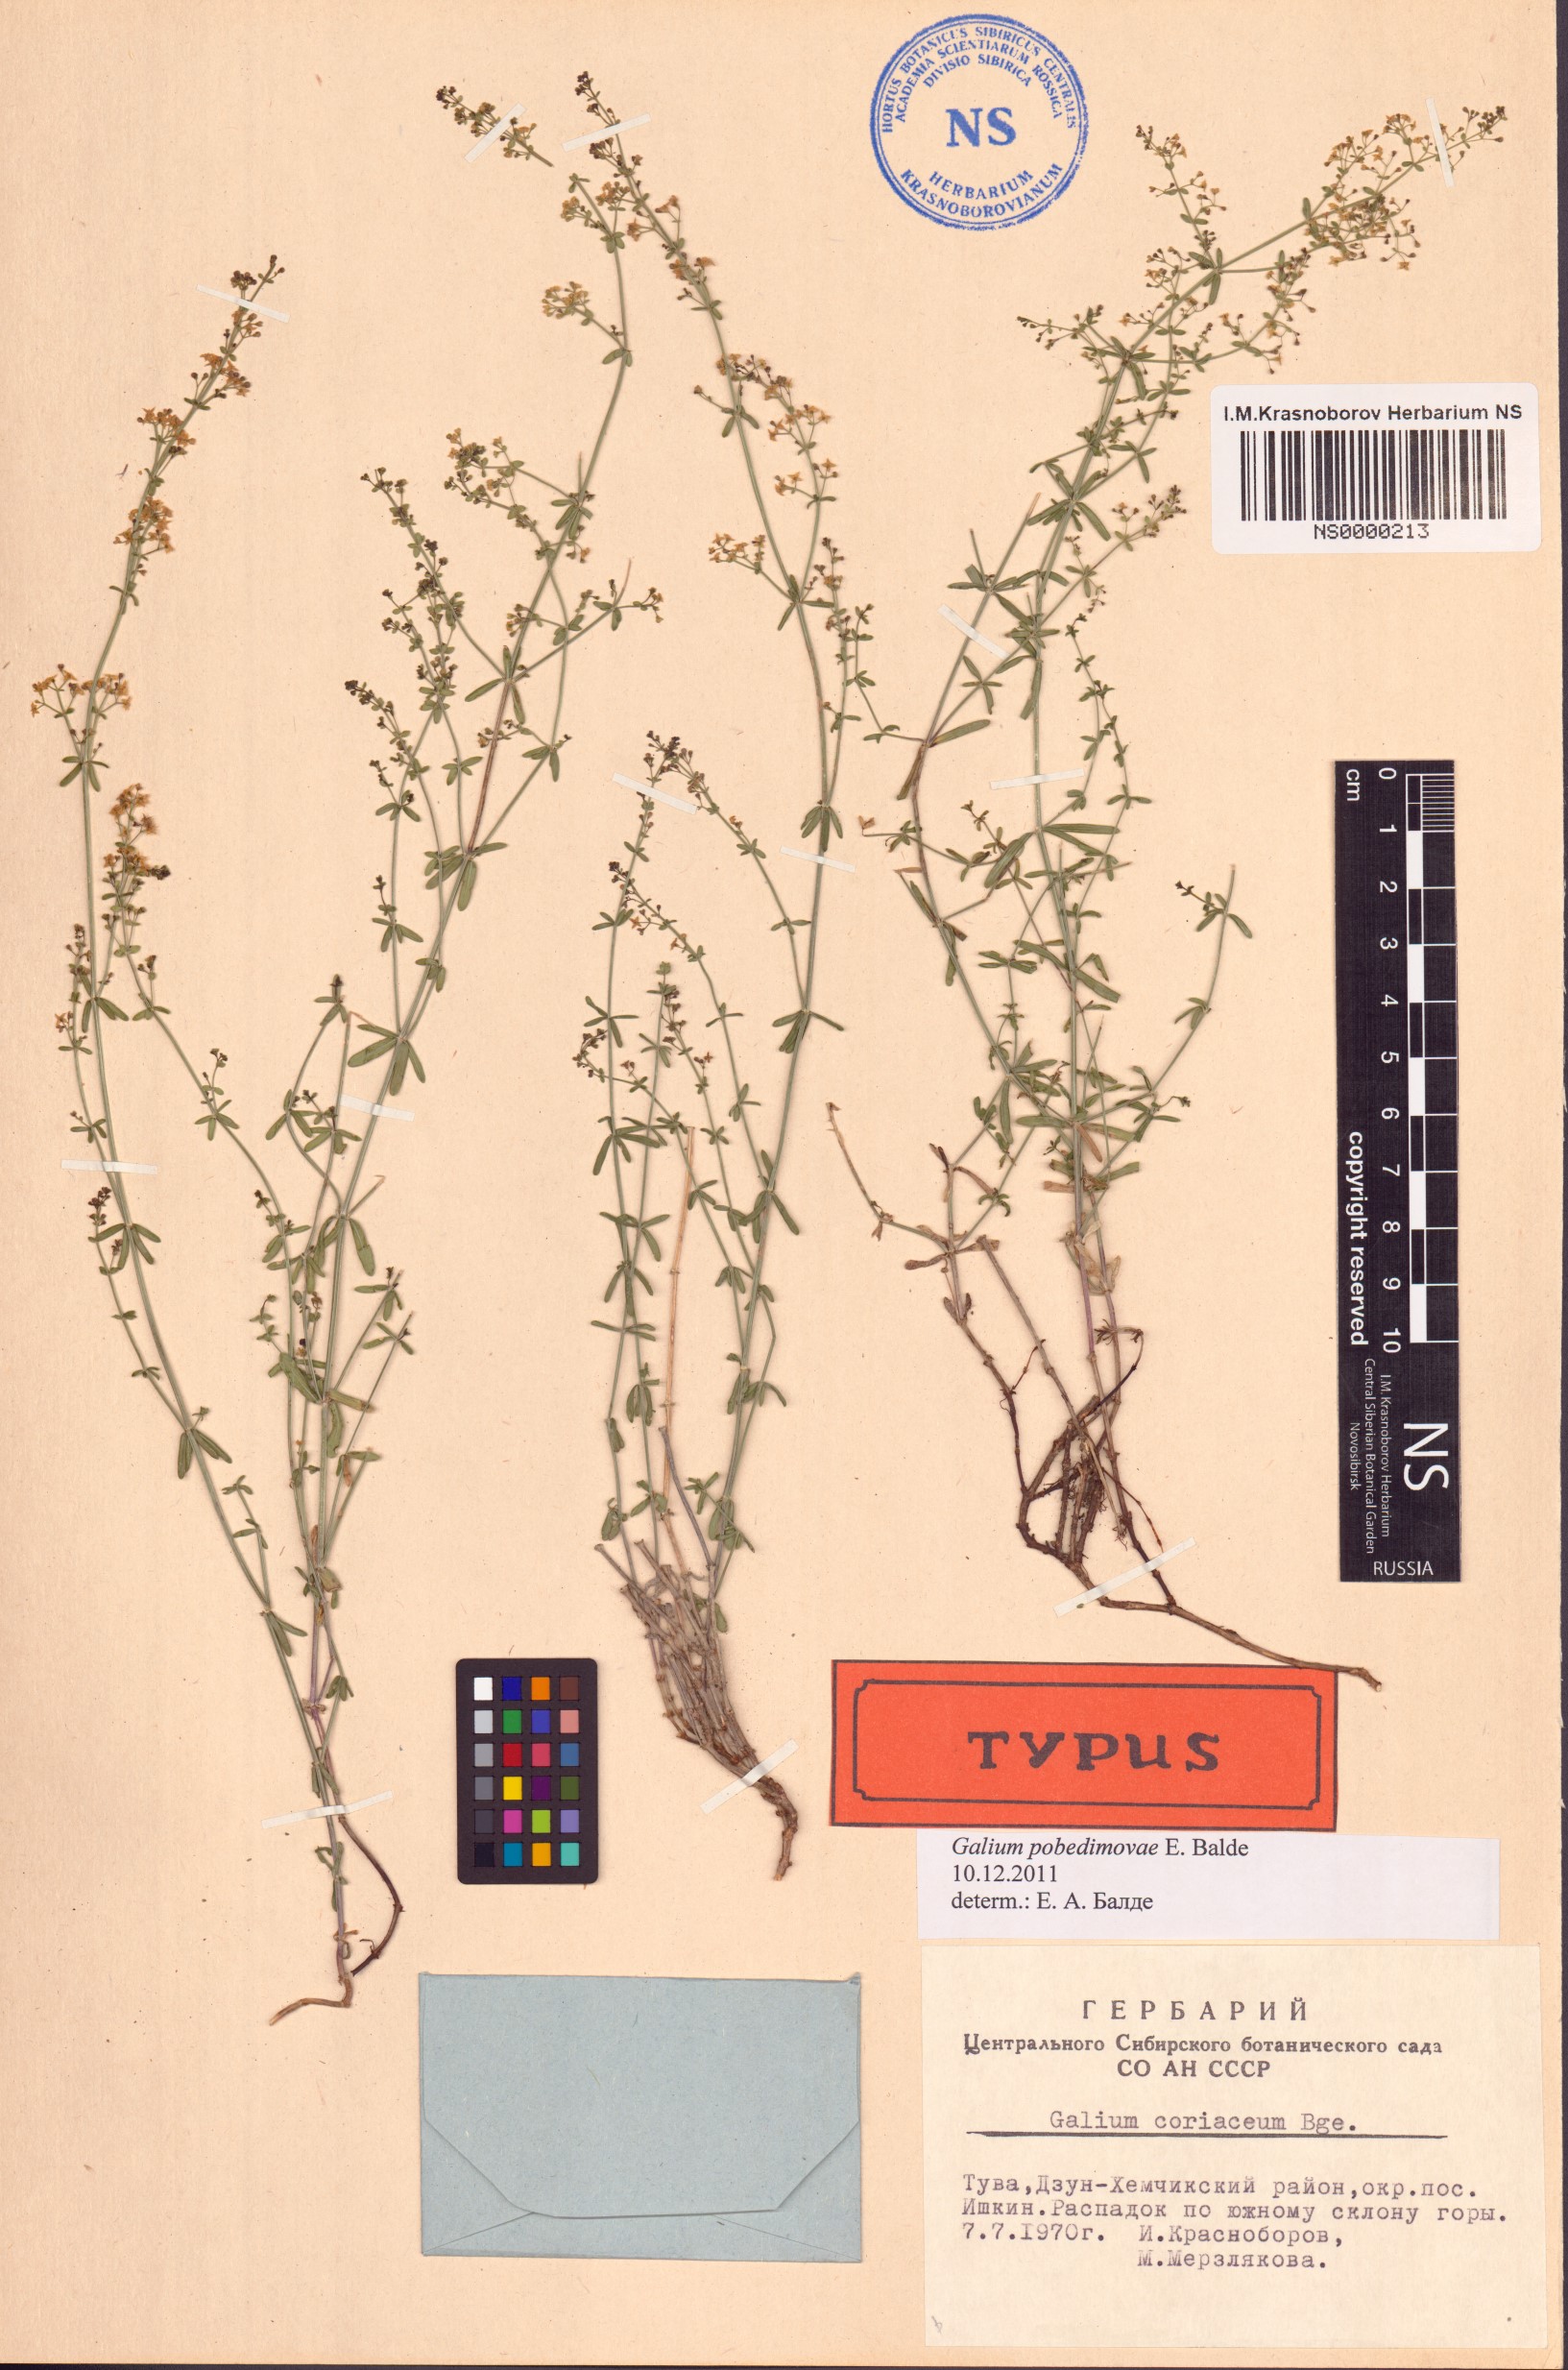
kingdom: Plantae
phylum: Tracheophyta
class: Magnoliopsida
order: Gentianales
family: Rubiaceae
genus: Galium
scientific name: Galium pobedimovae
